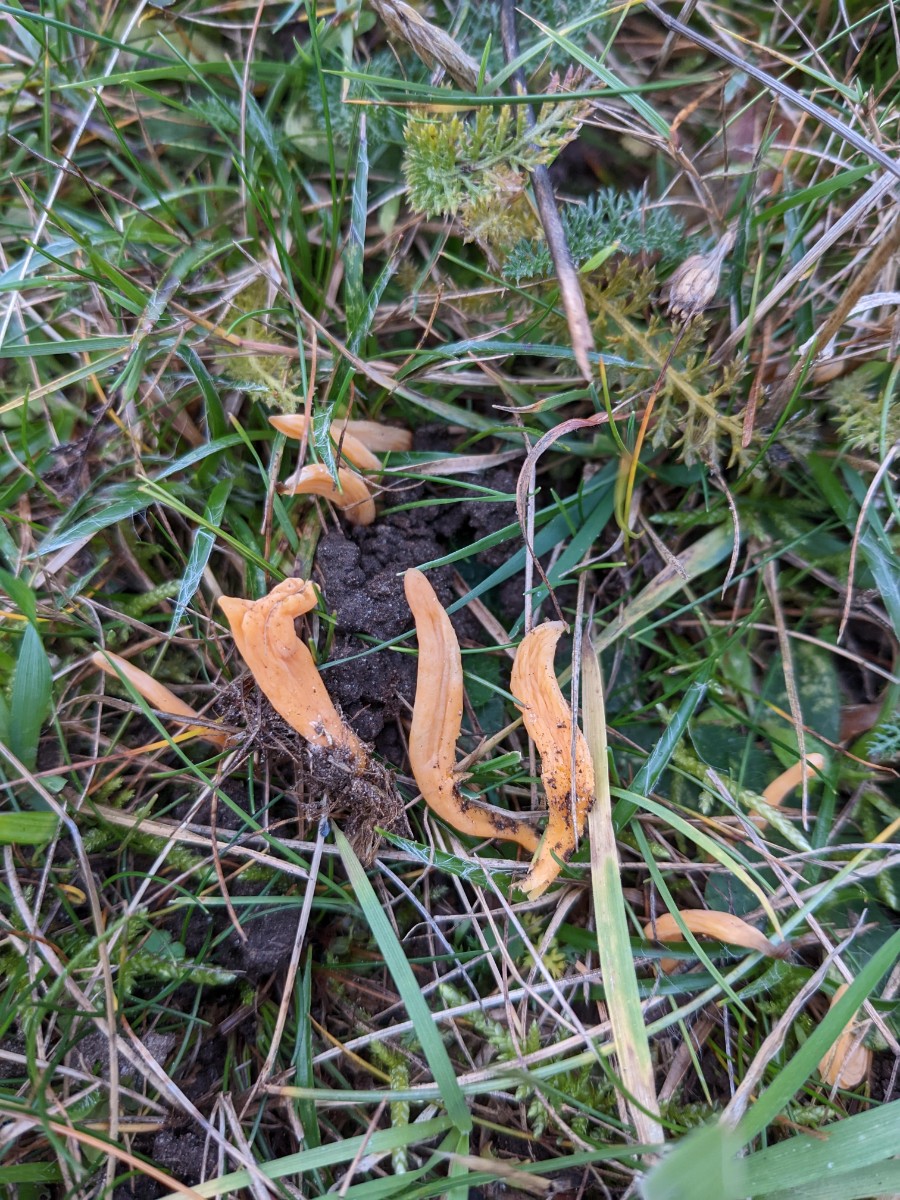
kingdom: Fungi
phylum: Basidiomycota
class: Agaricomycetes
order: Agaricales
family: Clavariaceae
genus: Clavulinopsis
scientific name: Clavulinopsis luteoalba
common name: abrikos-køllesvamp
